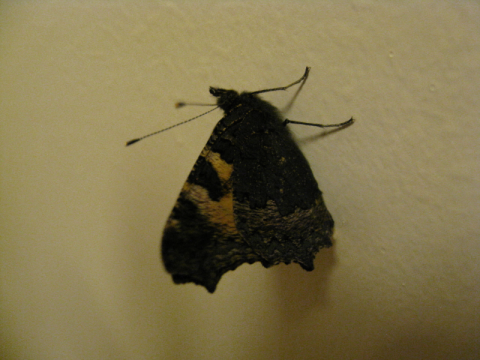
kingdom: Animalia
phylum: Arthropoda
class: Insecta
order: Lepidoptera
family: Nymphalidae
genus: Aglais
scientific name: Aglais urticae
